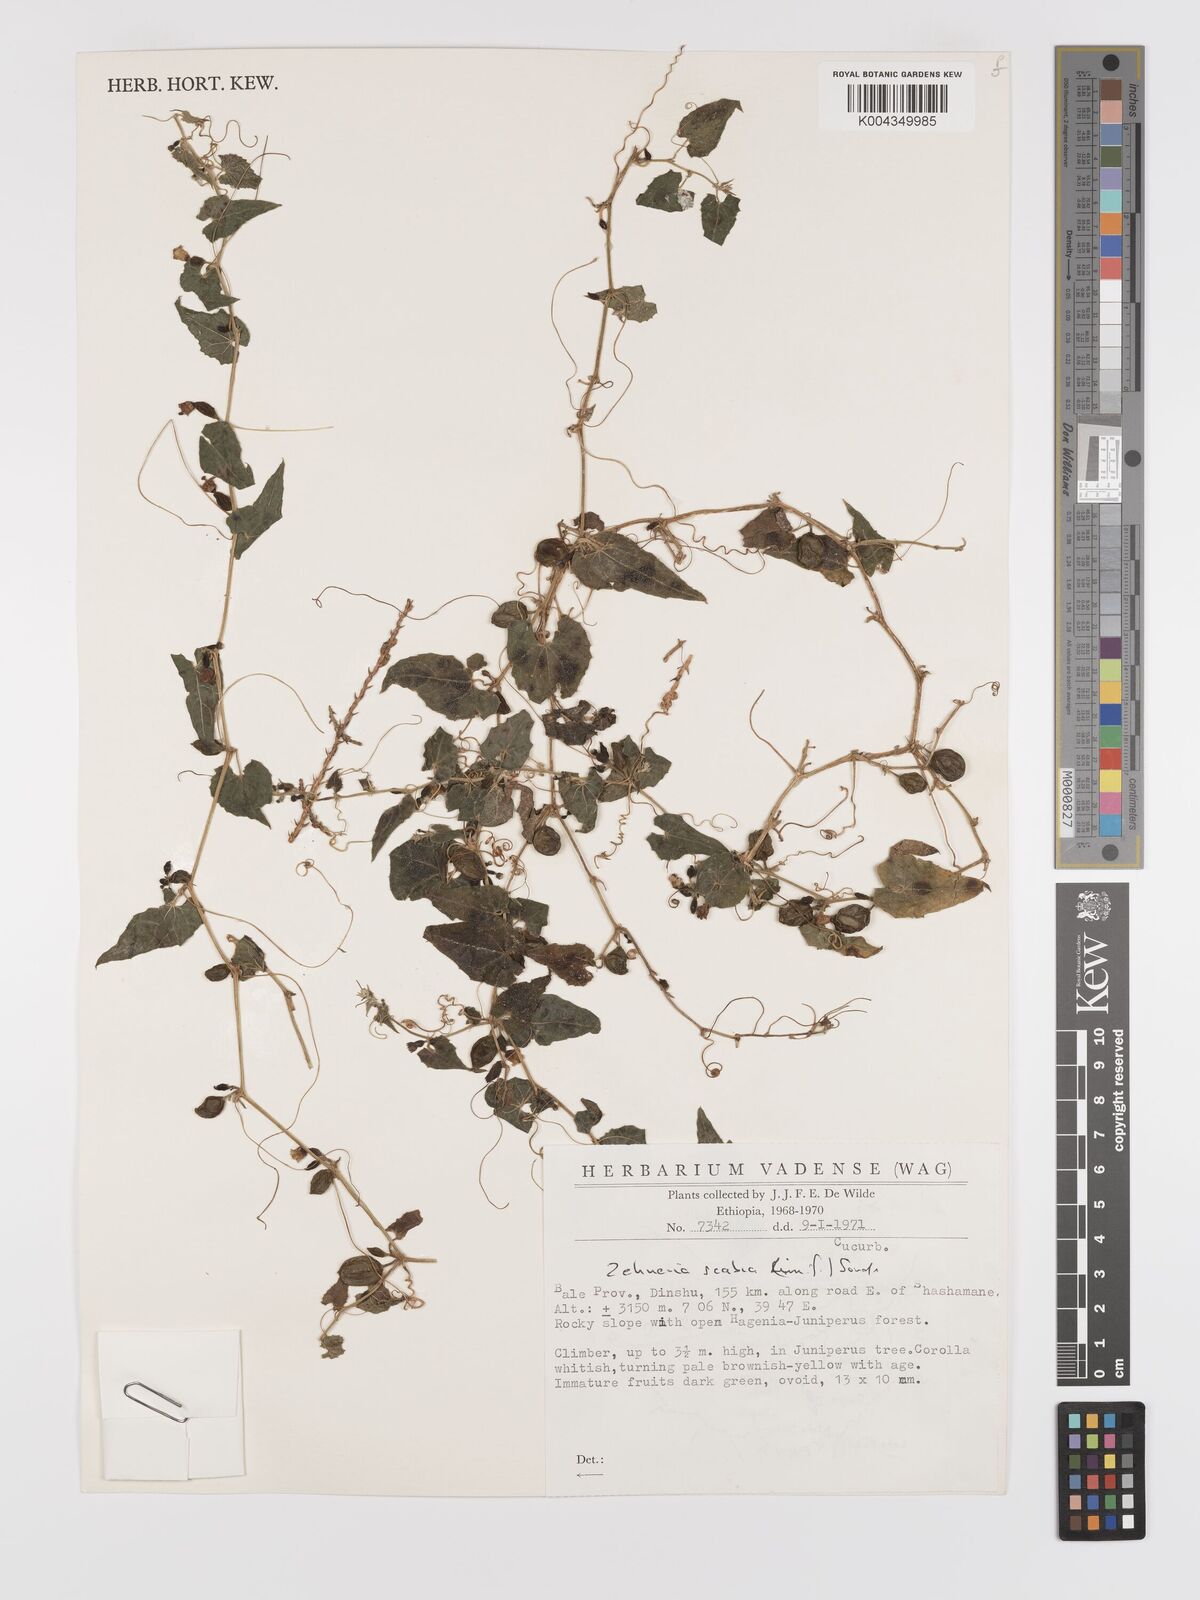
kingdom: Plantae
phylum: Tracheophyta
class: Magnoliopsida
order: Cucurbitales
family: Cucurbitaceae
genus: Zehneria
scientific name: Zehneria scabra
